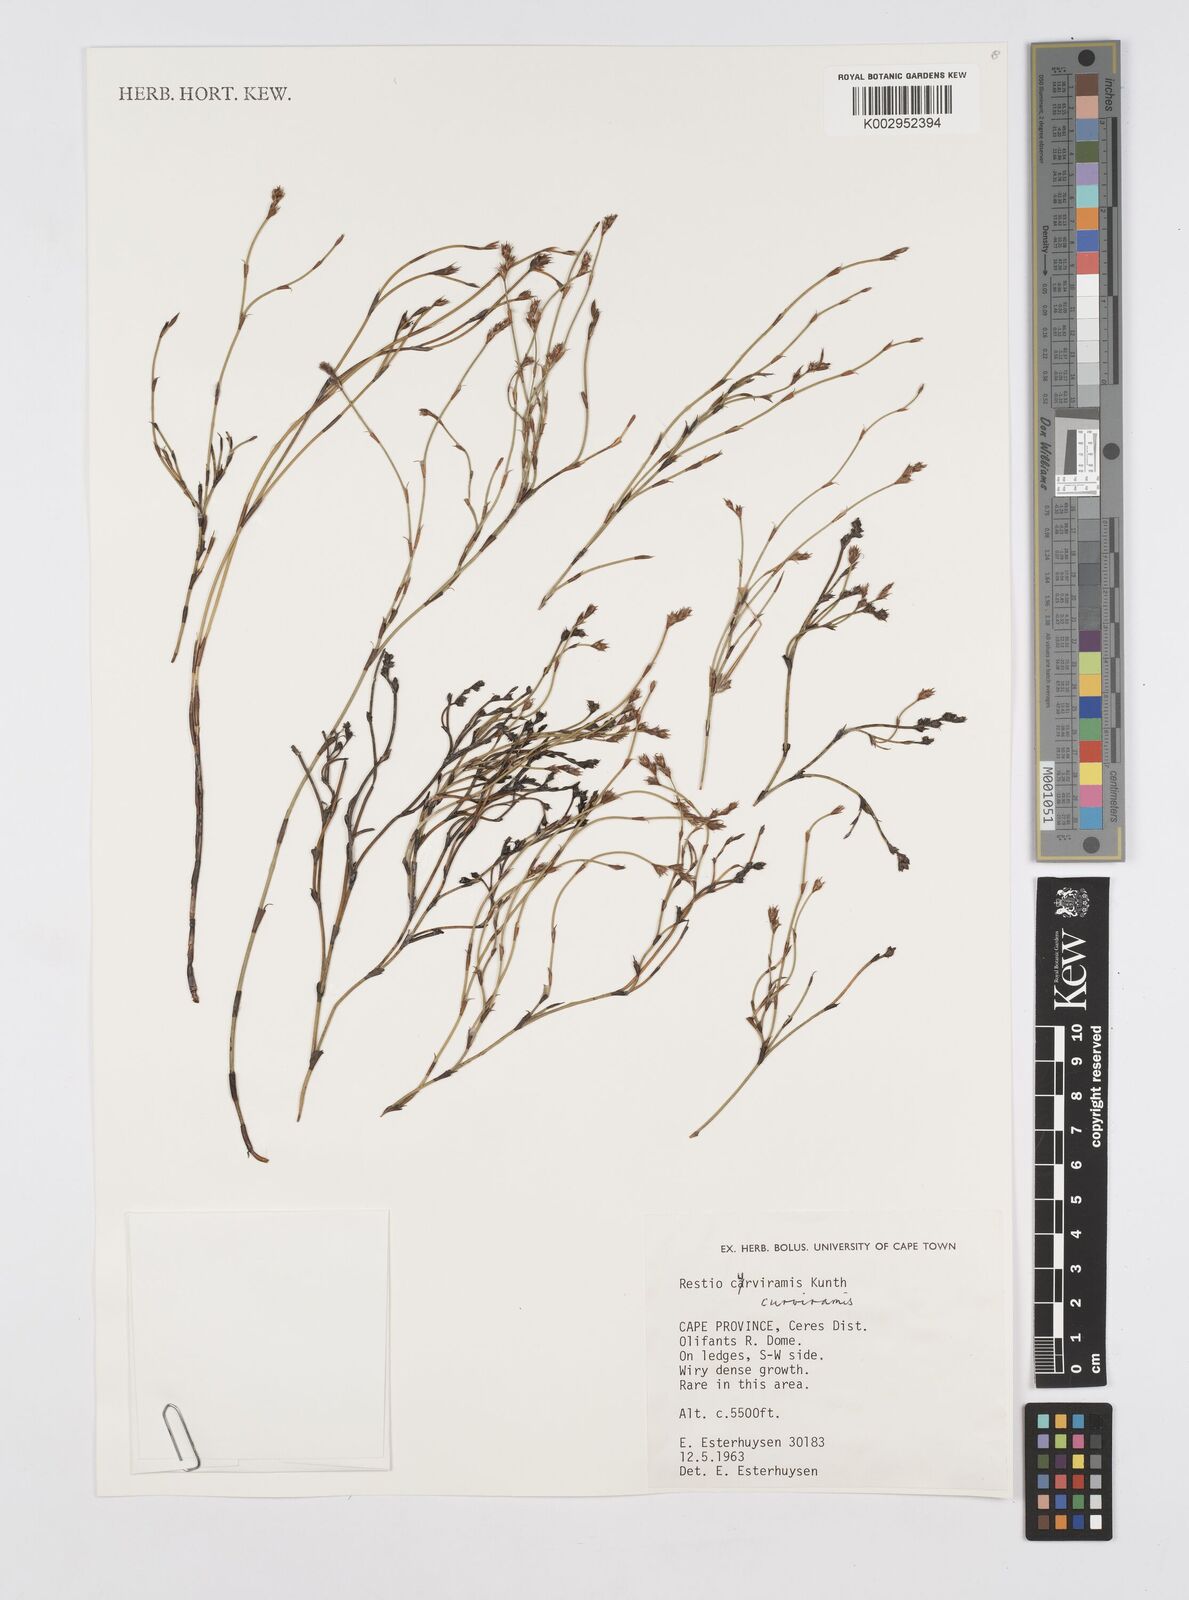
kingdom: Plantae
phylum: Tracheophyta
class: Liliopsida
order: Poales
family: Restionaceae
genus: Restio
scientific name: Restio curviramis
